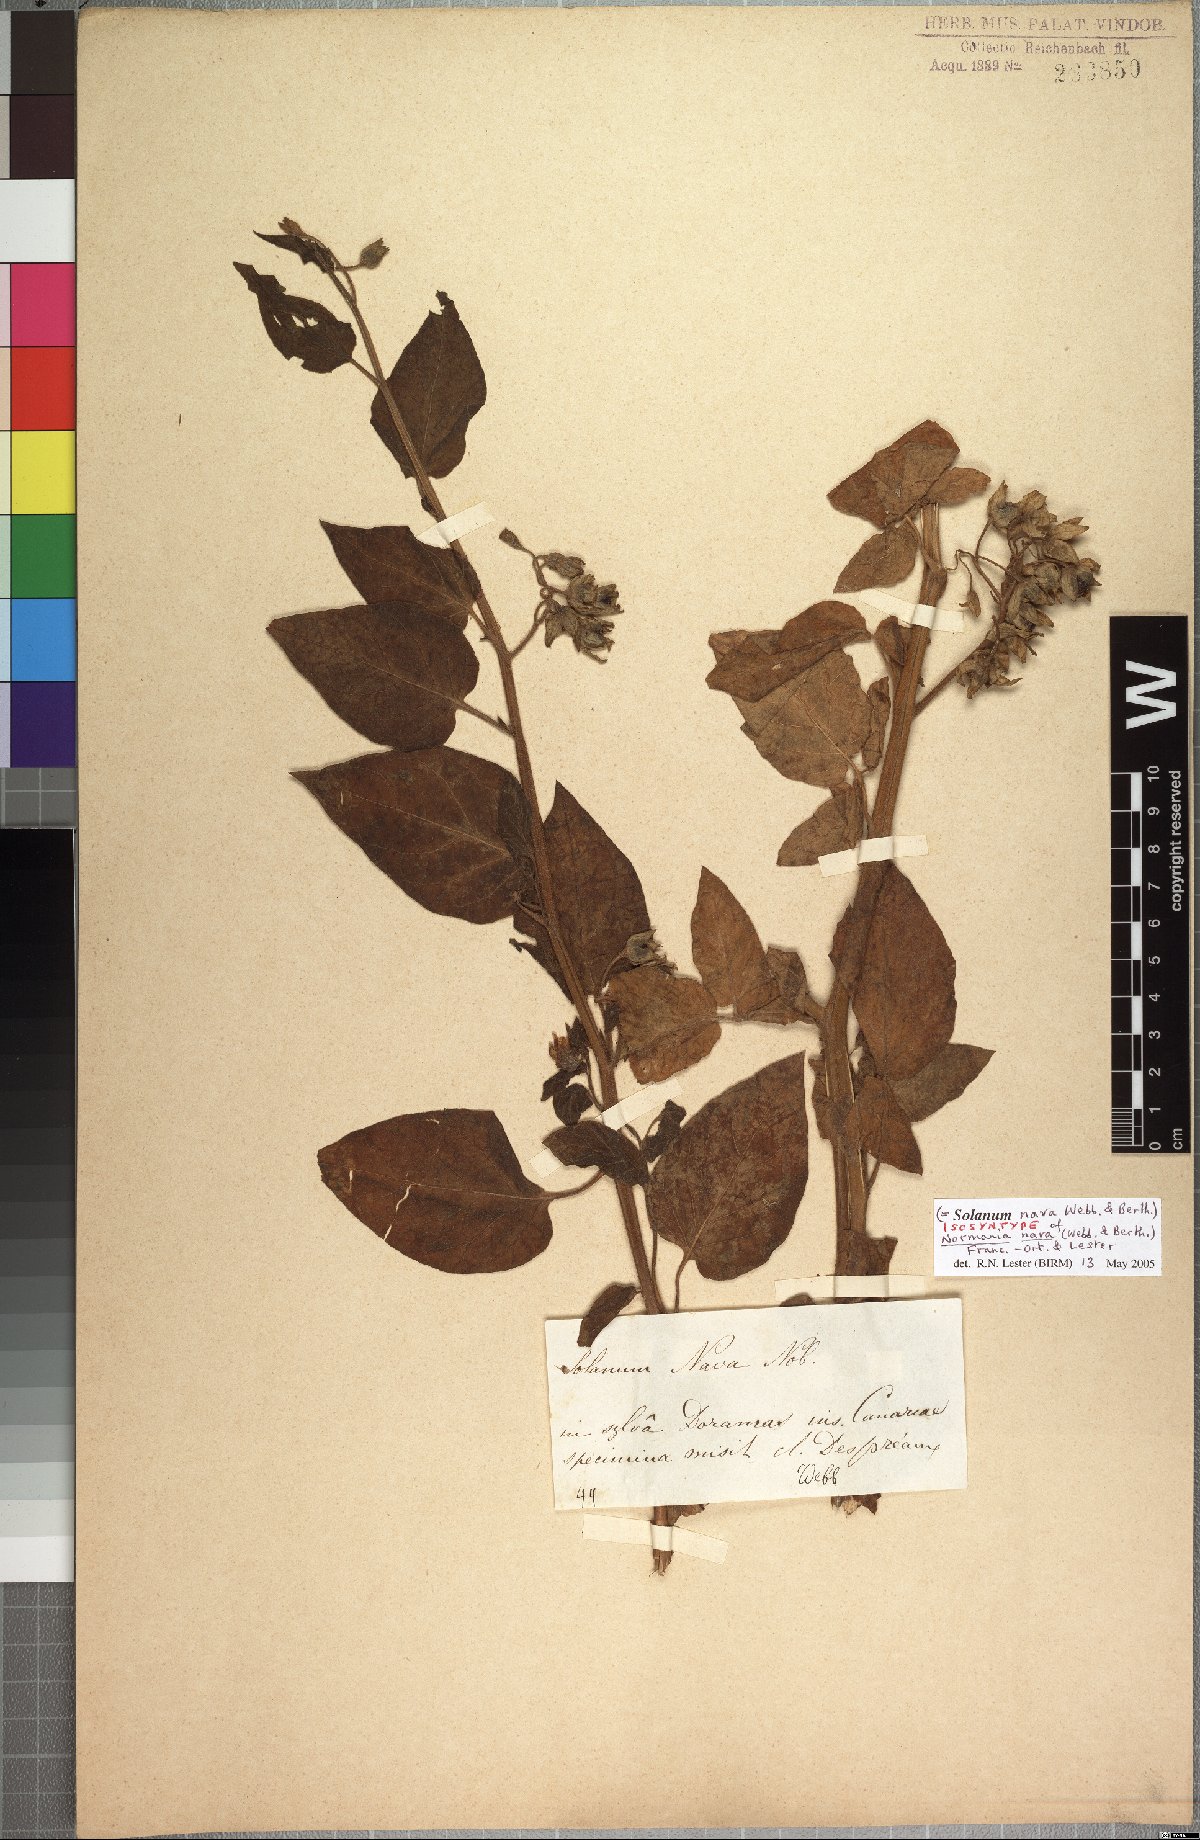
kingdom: Plantae
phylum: Tracheophyta
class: Magnoliopsida
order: Solanales
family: Solanaceae
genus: Solanum
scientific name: Solanum nava
